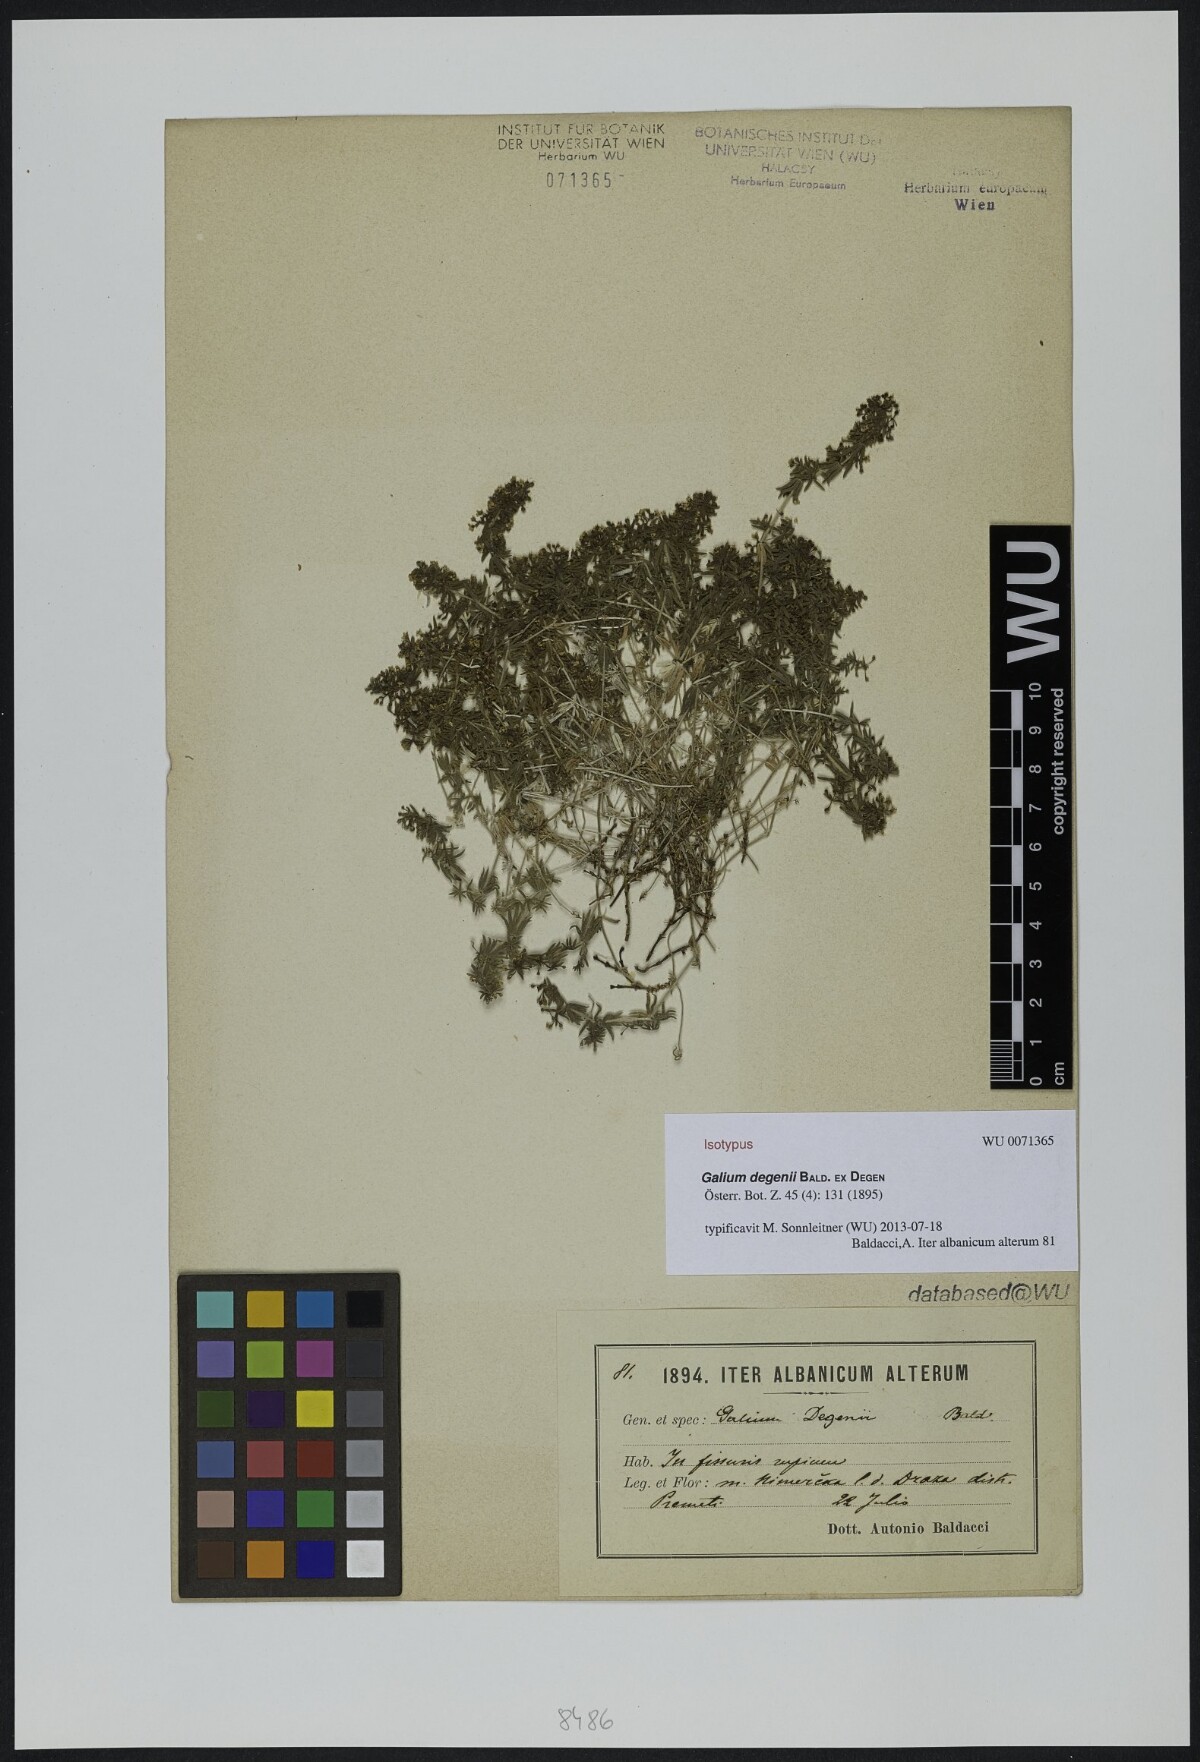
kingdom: Plantae
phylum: Tracheophyta
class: Magnoliopsida
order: Gentianales
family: Rubiaceae
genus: Galium
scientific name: Galium degenii
